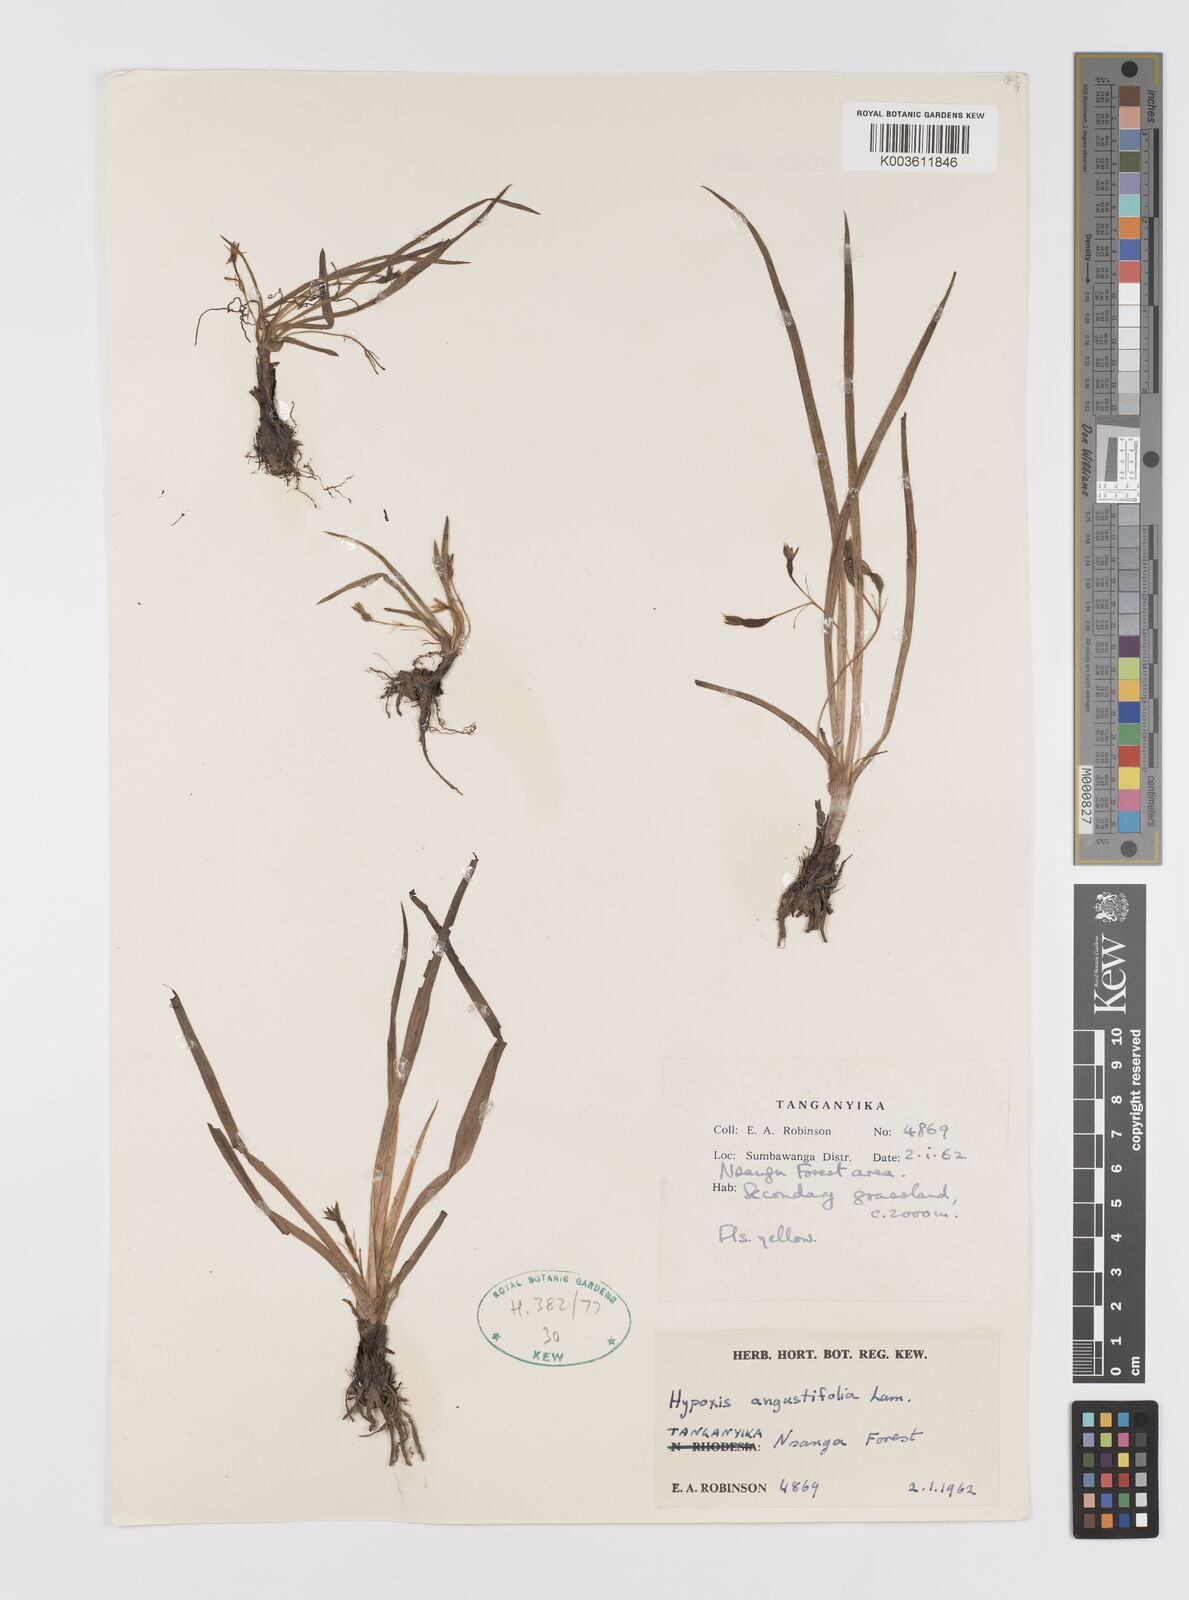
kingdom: Plantae
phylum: Tracheophyta
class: Liliopsida
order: Asparagales
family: Hypoxidaceae
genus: Hypoxis
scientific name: Hypoxis angustifolia
